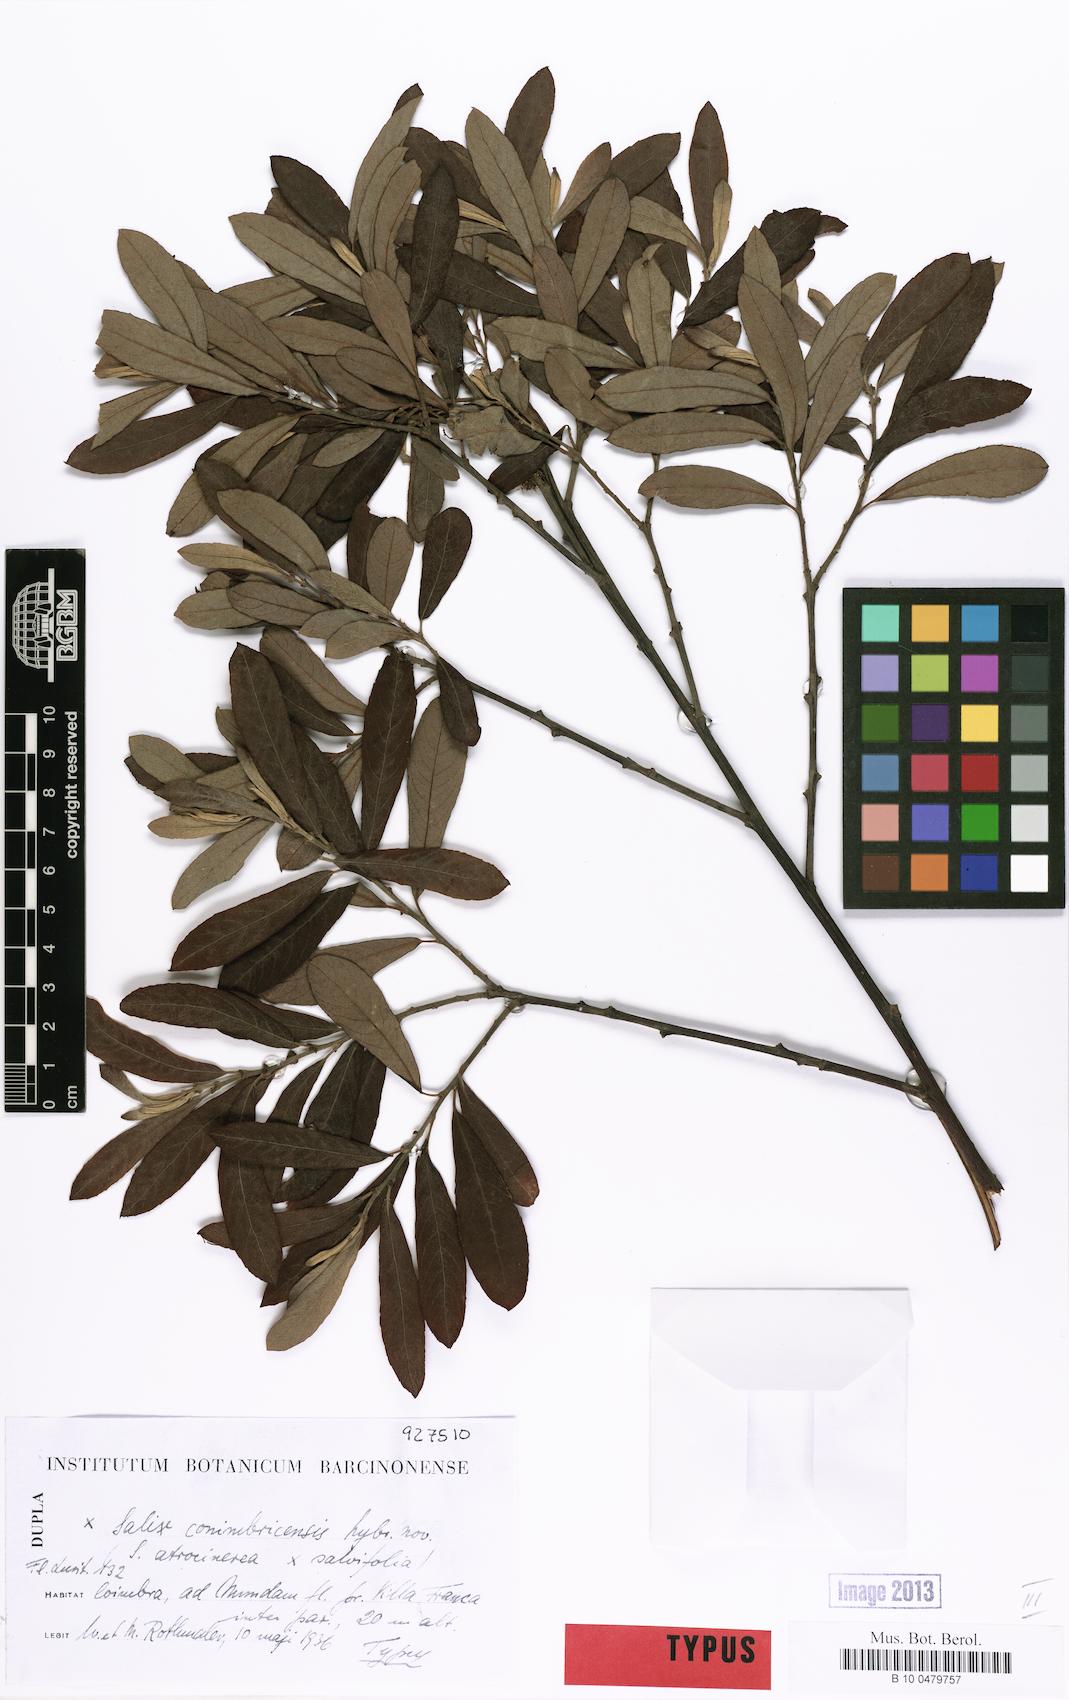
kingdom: Plantae
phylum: Tracheophyta
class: Magnoliopsida
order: Malpighiales
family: Salicaceae
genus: Salix
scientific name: Salix
